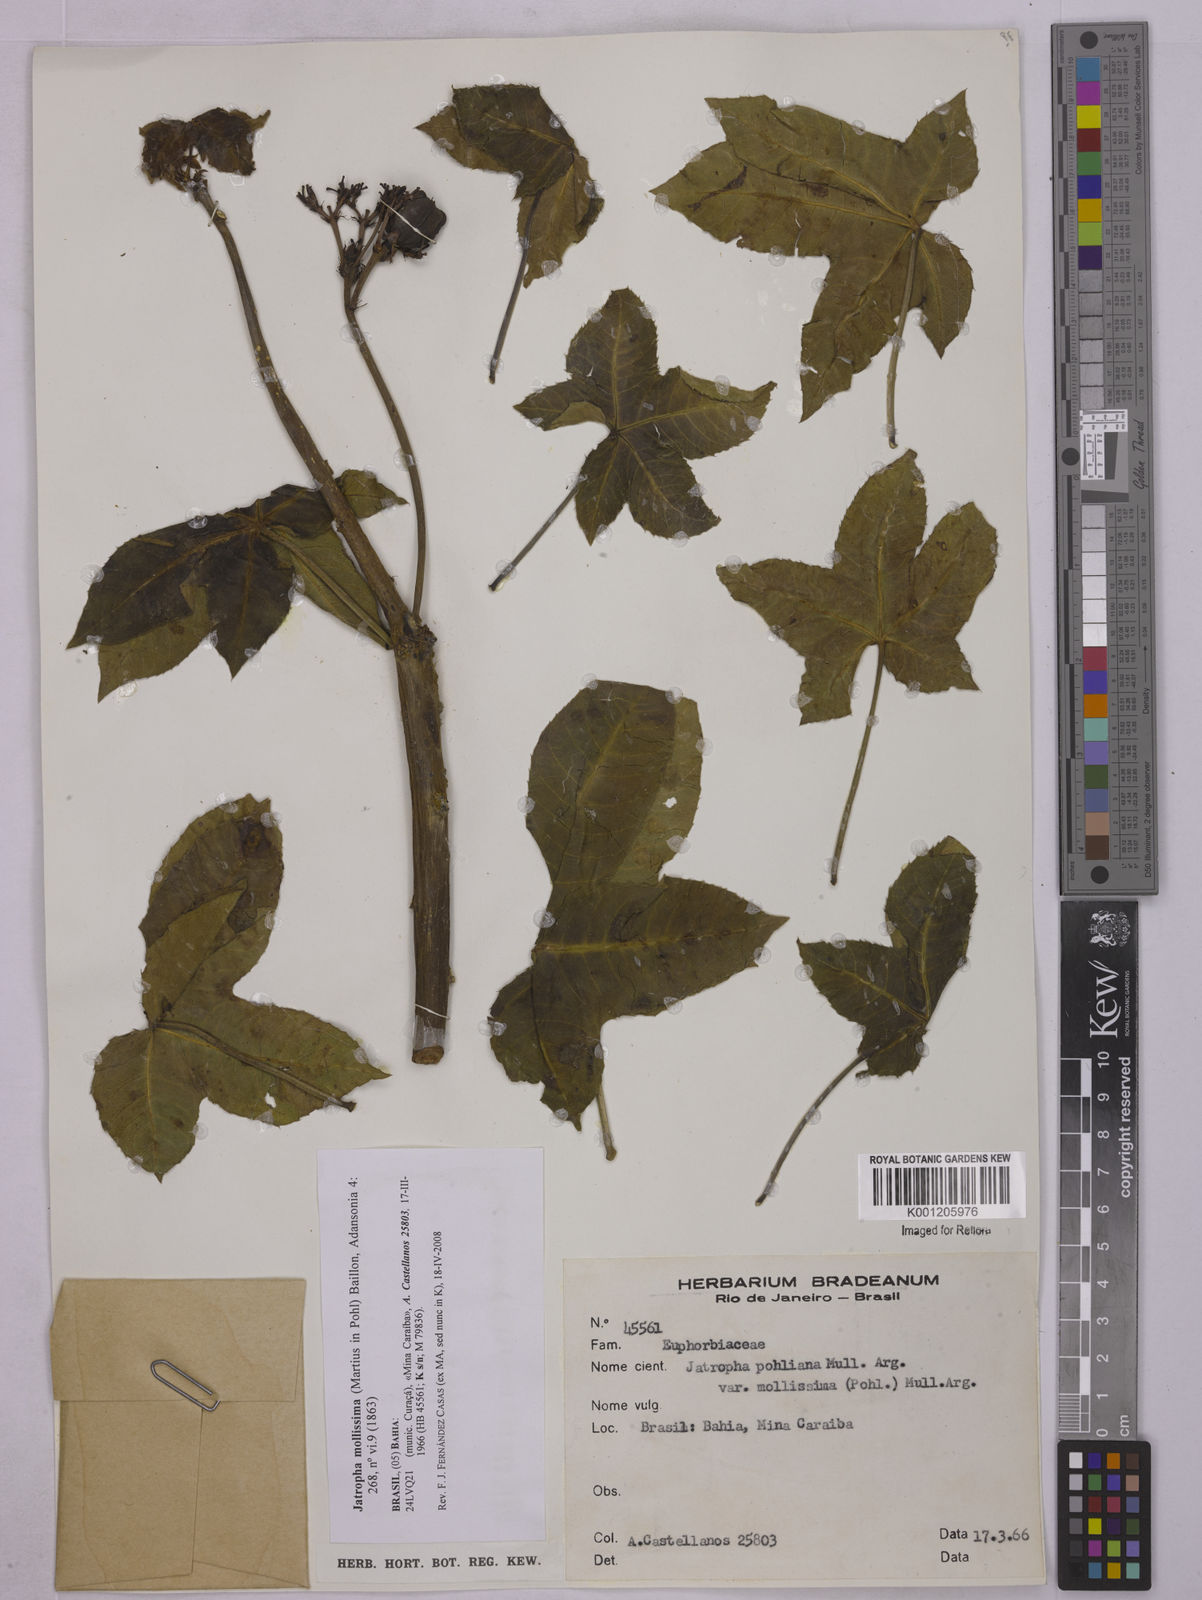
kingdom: Plantae
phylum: Tracheophyta
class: Magnoliopsida
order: Malpighiales
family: Euphorbiaceae
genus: Jatropha
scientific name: Jatropha mollissima
